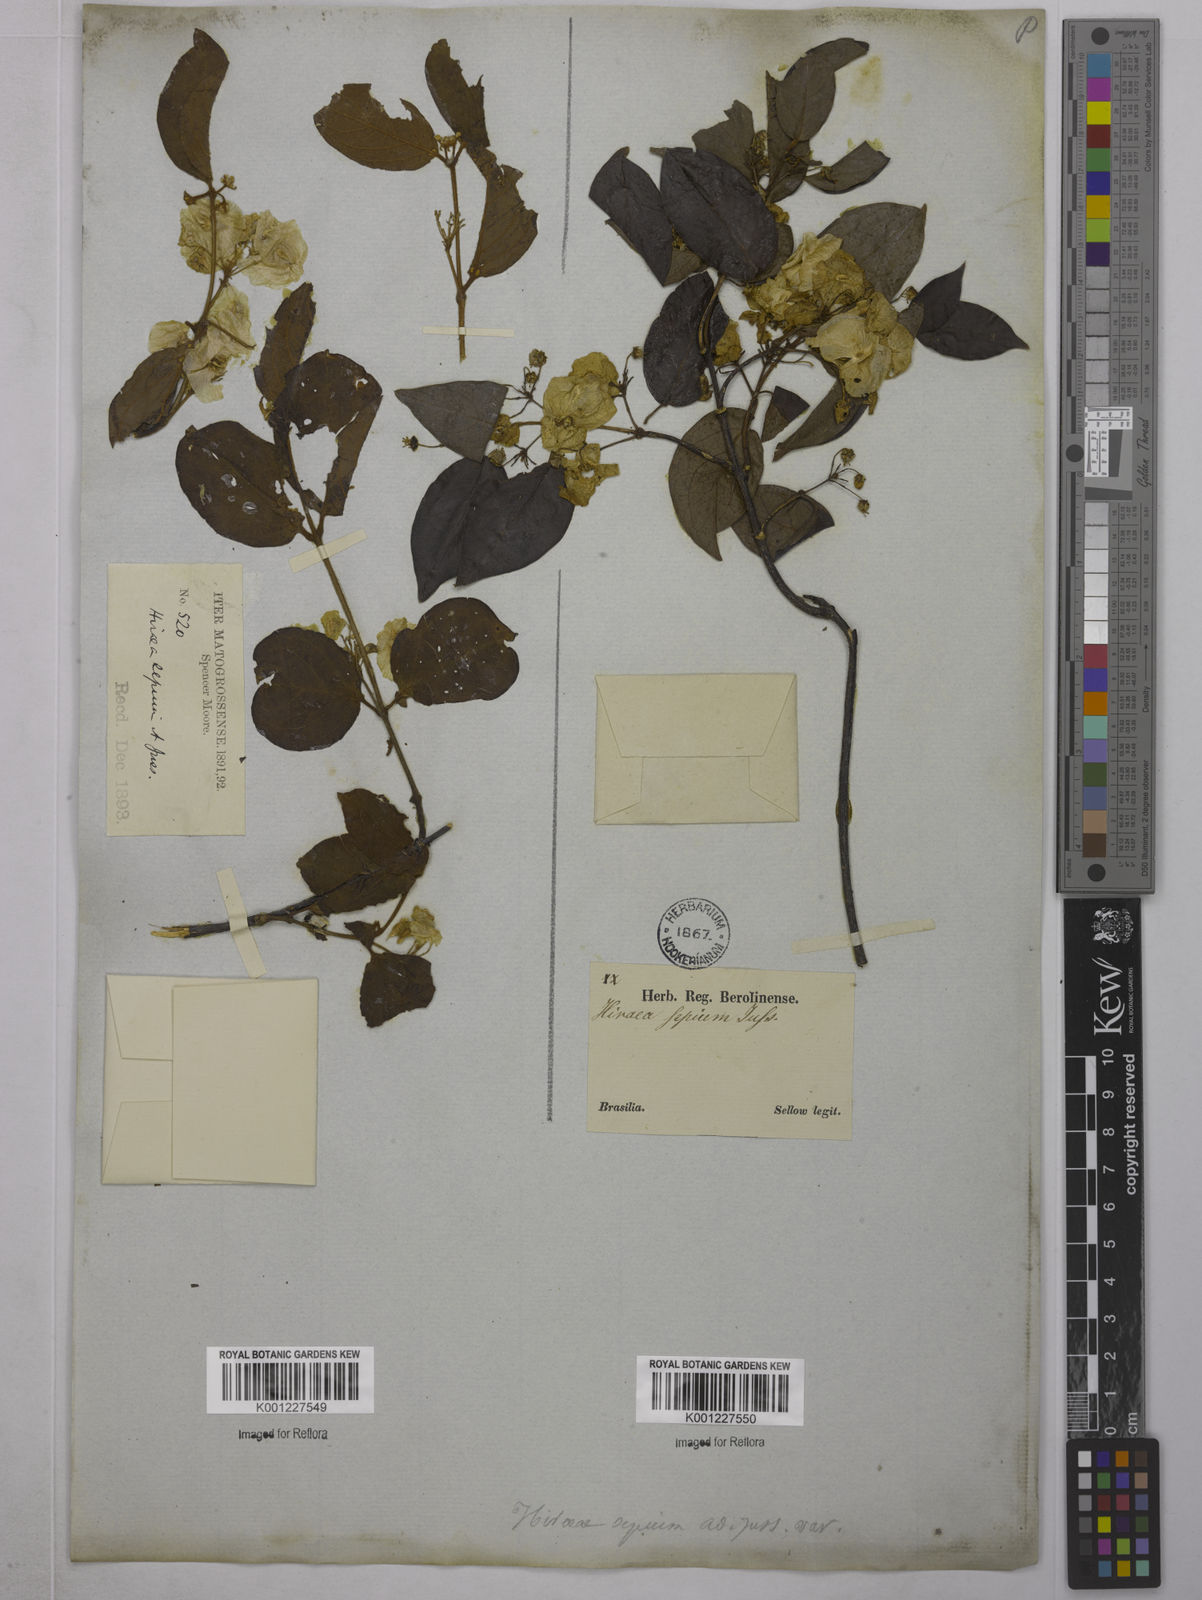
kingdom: Plantae
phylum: Tracheophyta
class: Magnoliopsida
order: Malpighiales
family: Malpighiaceae
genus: Mascagnia
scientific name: Mascagnia sepium
